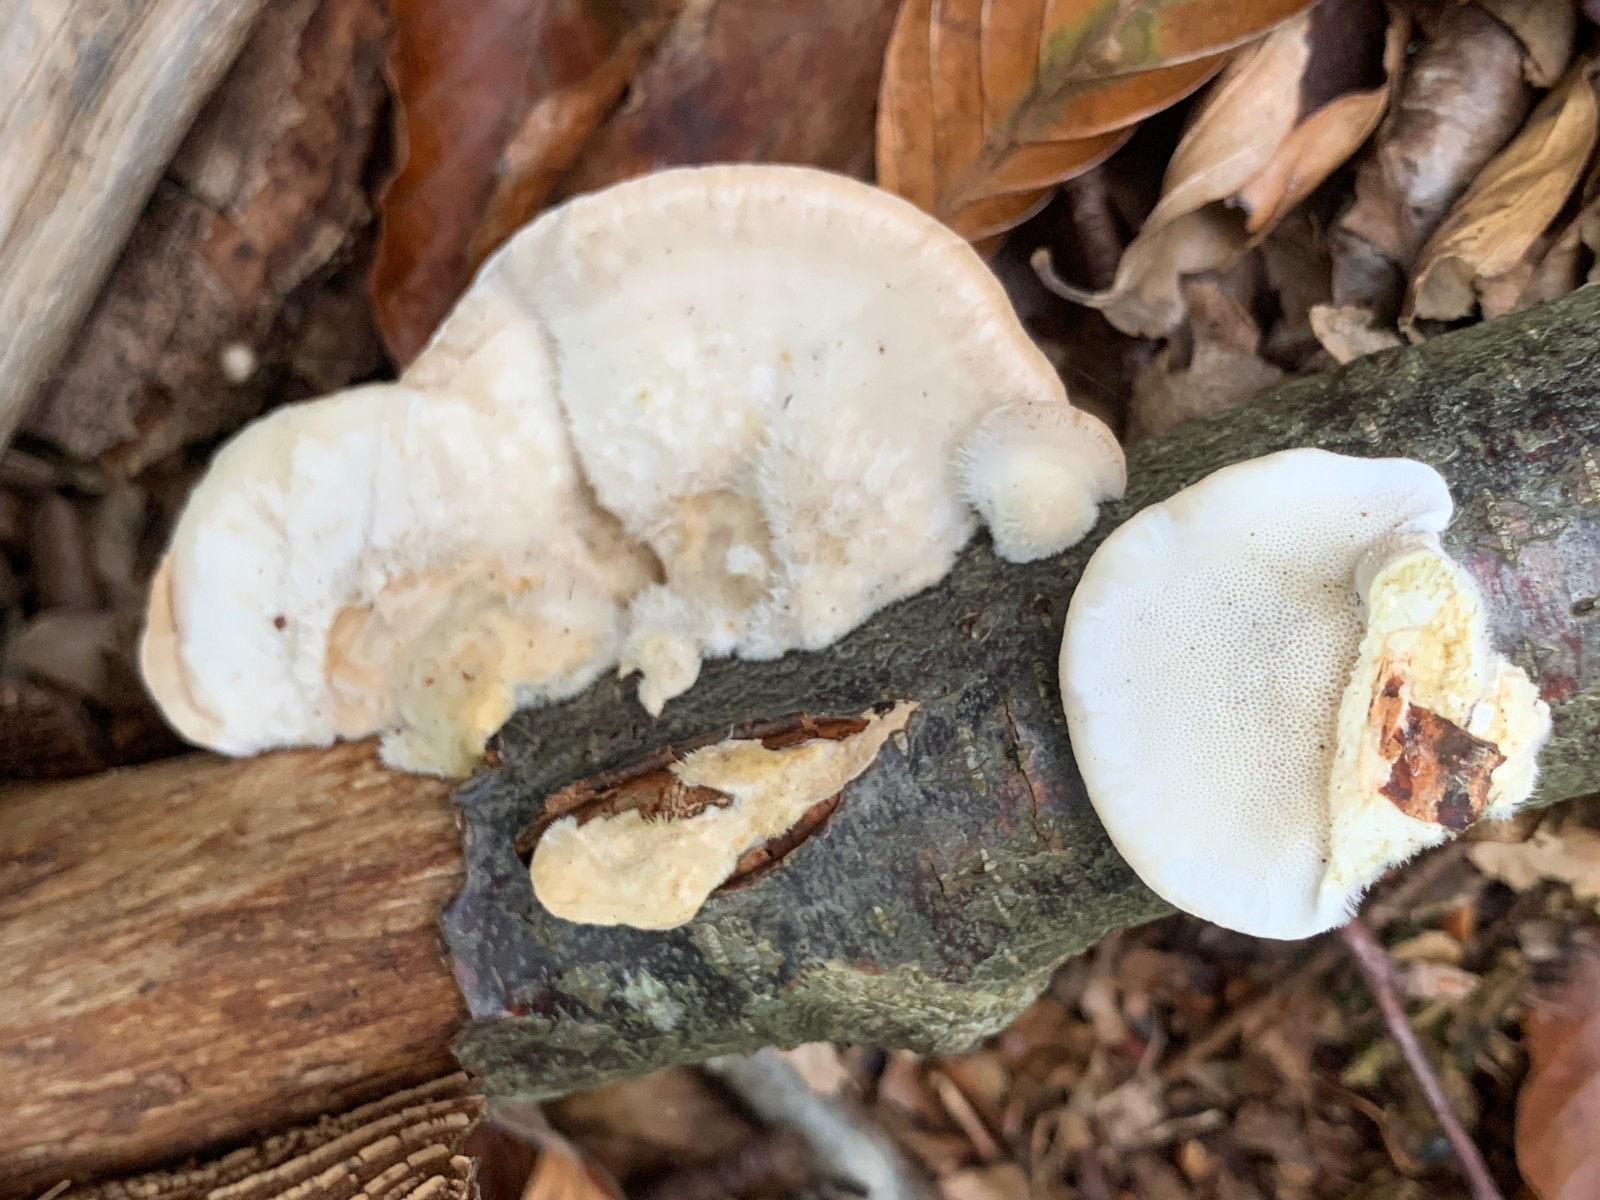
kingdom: Fungi
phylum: Basidiomycota
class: Agaricomycetes
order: Polyporales
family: Polyporaceae
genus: Trametes
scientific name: Trametes hirsuta
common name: håret læderporesvamp
